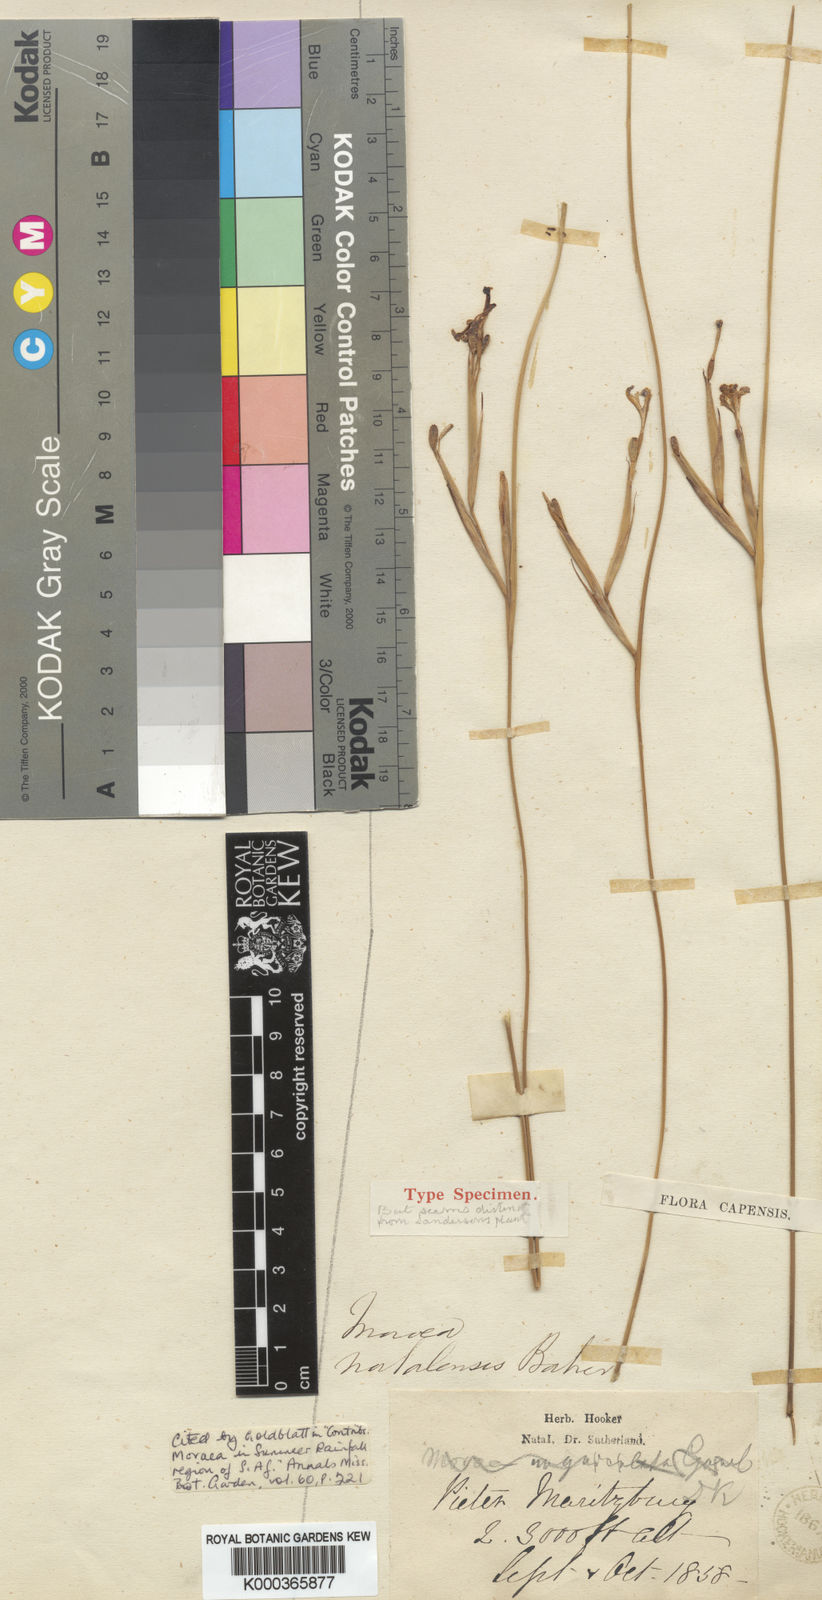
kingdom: Plantae
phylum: Tracheophyta
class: Liliopsida
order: Asparagales
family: Iridaceae
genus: Moraea
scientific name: Moraea natalensis
